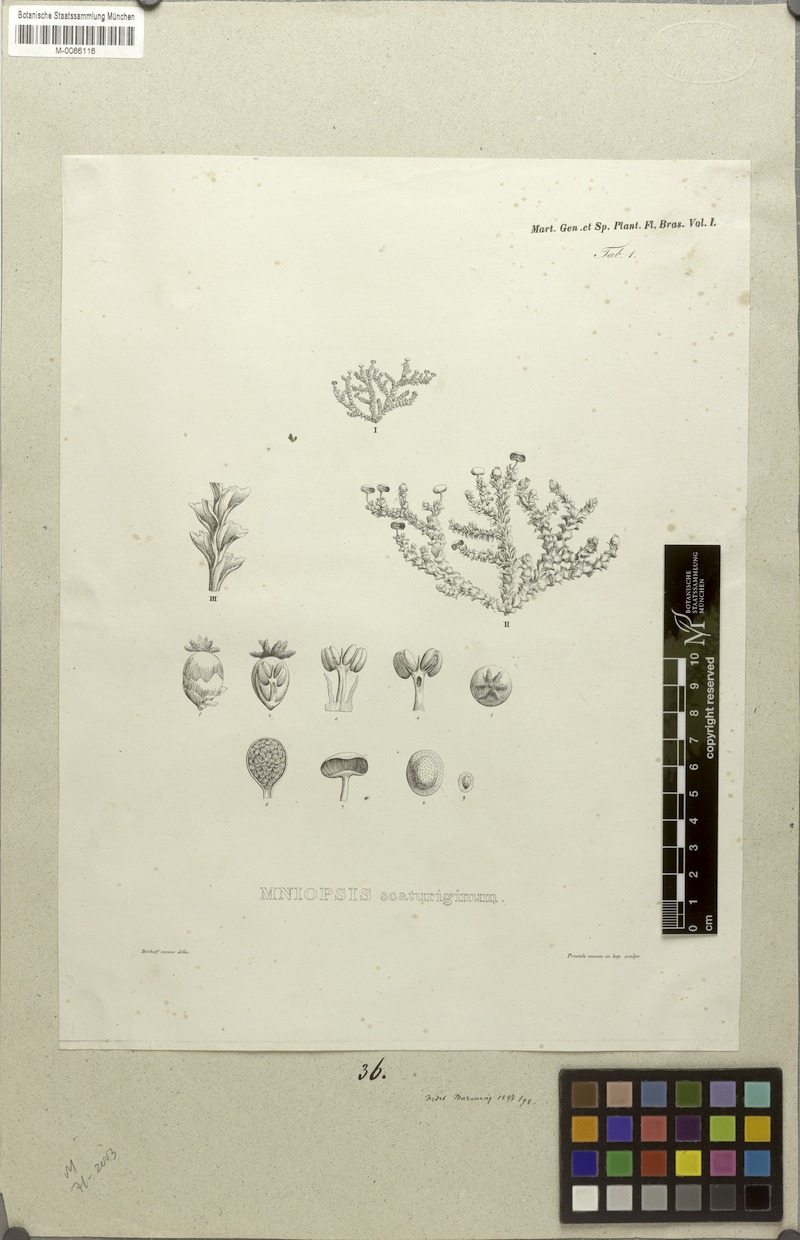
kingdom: Plantae
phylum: Tracheophyta
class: Magnoliopsida
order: Malpighiales
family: Podostemaceae
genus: Podostemum
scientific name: Podostemum scaturiginum
